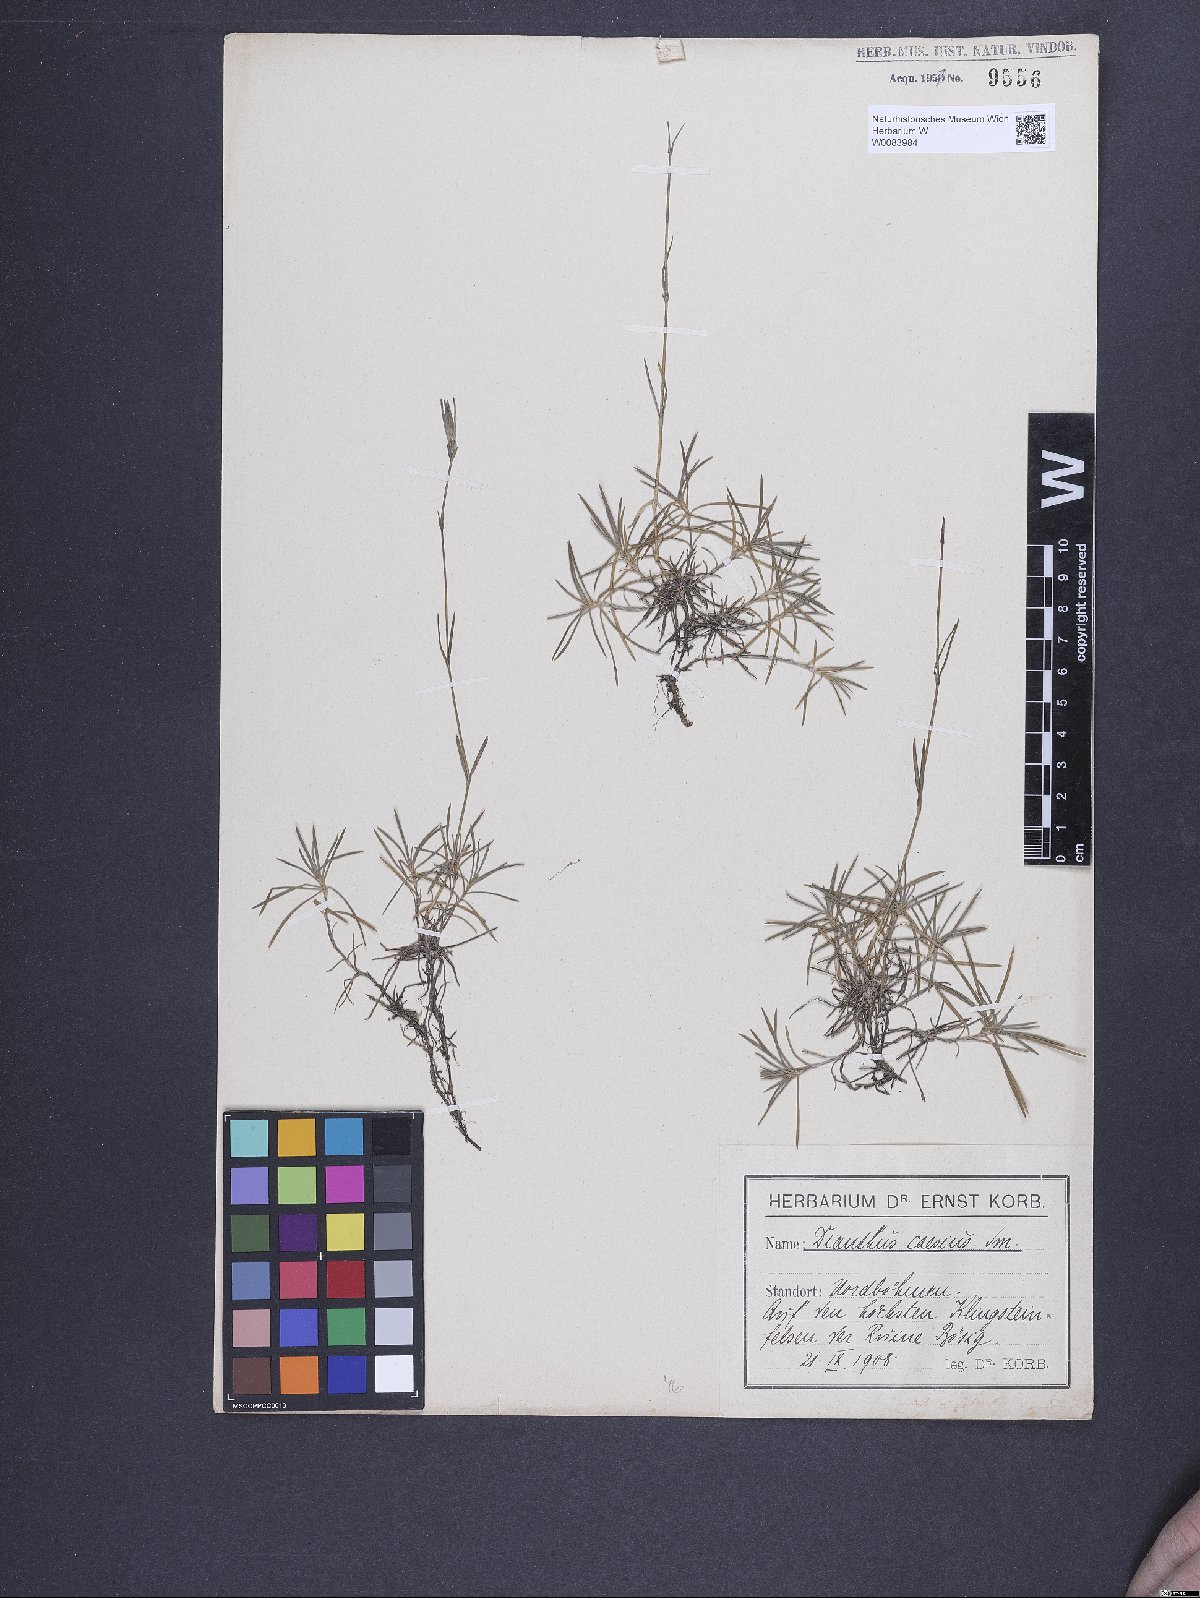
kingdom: Plantae
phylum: Tracheophyta
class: Magnoliopsida
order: Caryophyllales
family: Caryophyllaceae
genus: Dianthus
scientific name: Dianthus gratianopolitanus
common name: Cheddar pink
